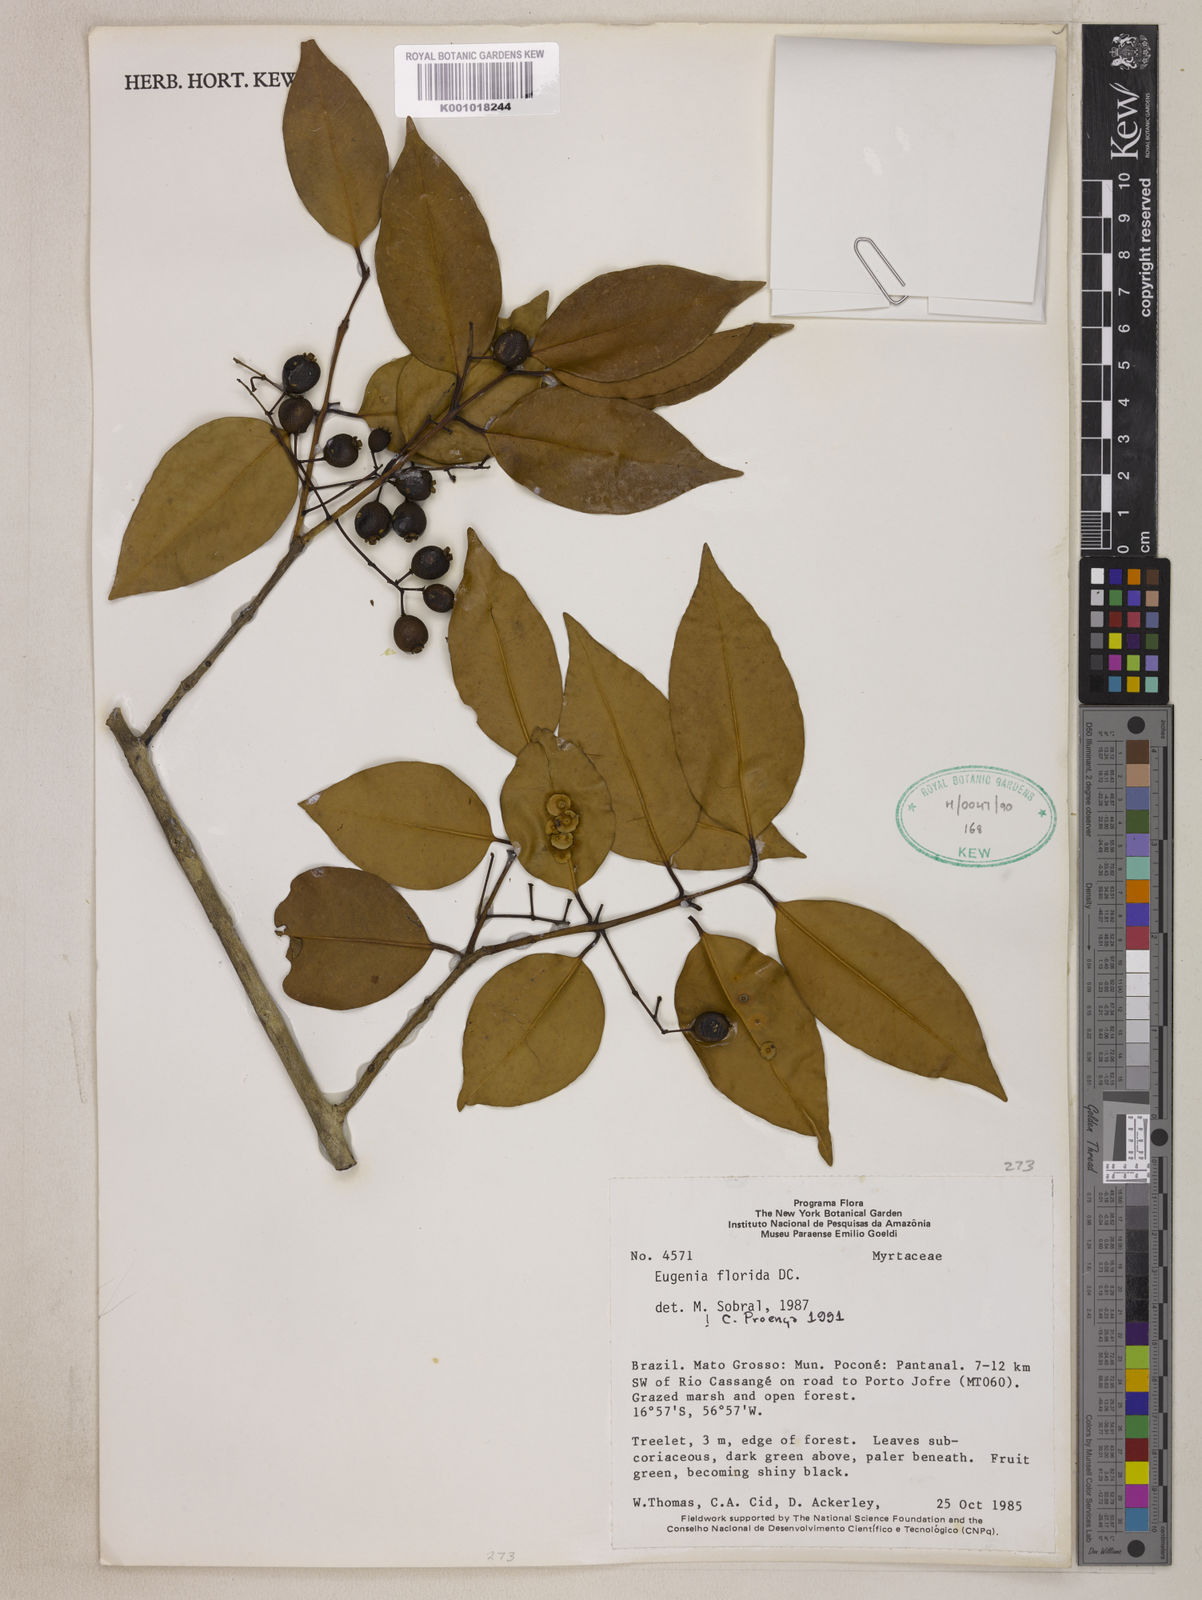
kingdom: Plantae
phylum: Tracheophyta
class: Magnoliopsida
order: Myrtales
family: Myrtaceae
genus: Eugenia
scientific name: Eugenia florida
